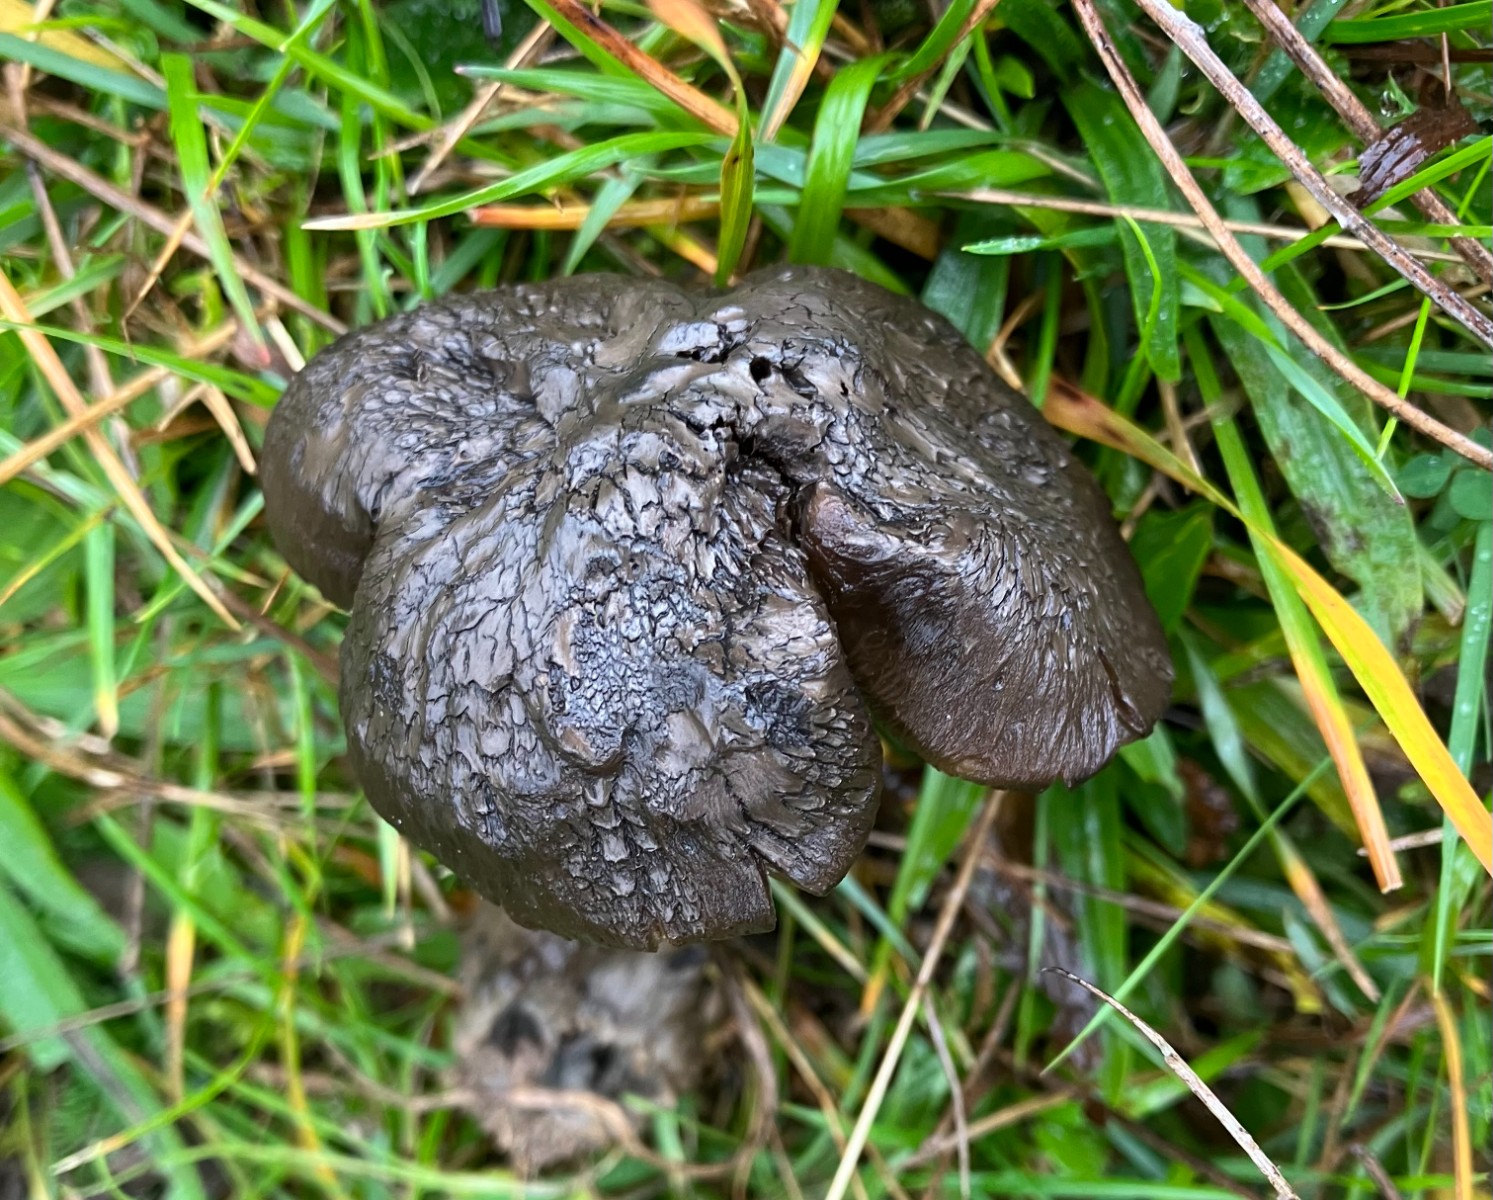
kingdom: Fungi
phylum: Basidiomycota
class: Agaricomycetes
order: Agaricales
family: Hygrophoraceae
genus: Neohygrocybe
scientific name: Neohygrocybe ovina
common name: rødmende vokshat
